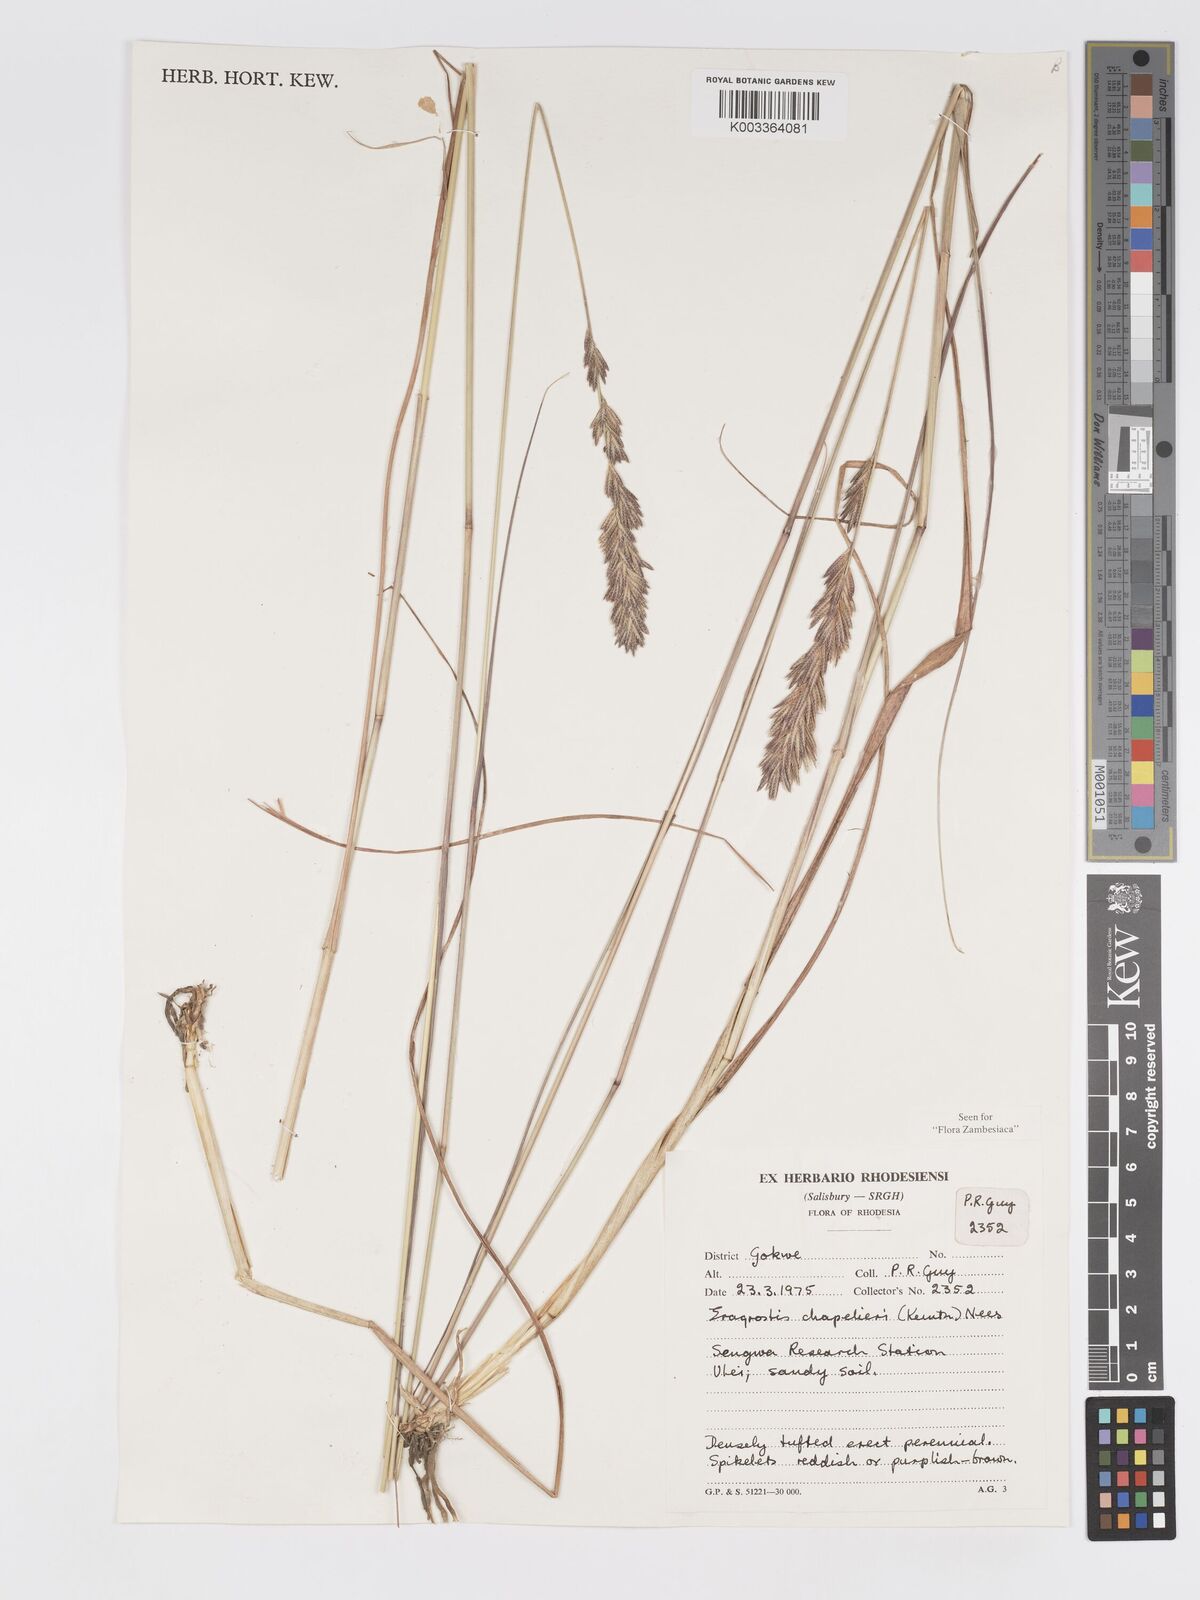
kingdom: Plantae
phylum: Tracheophyta
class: Liliopsida
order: Poales
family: Poaceae
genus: Eragrostis
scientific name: Eragrostis chapelieri
